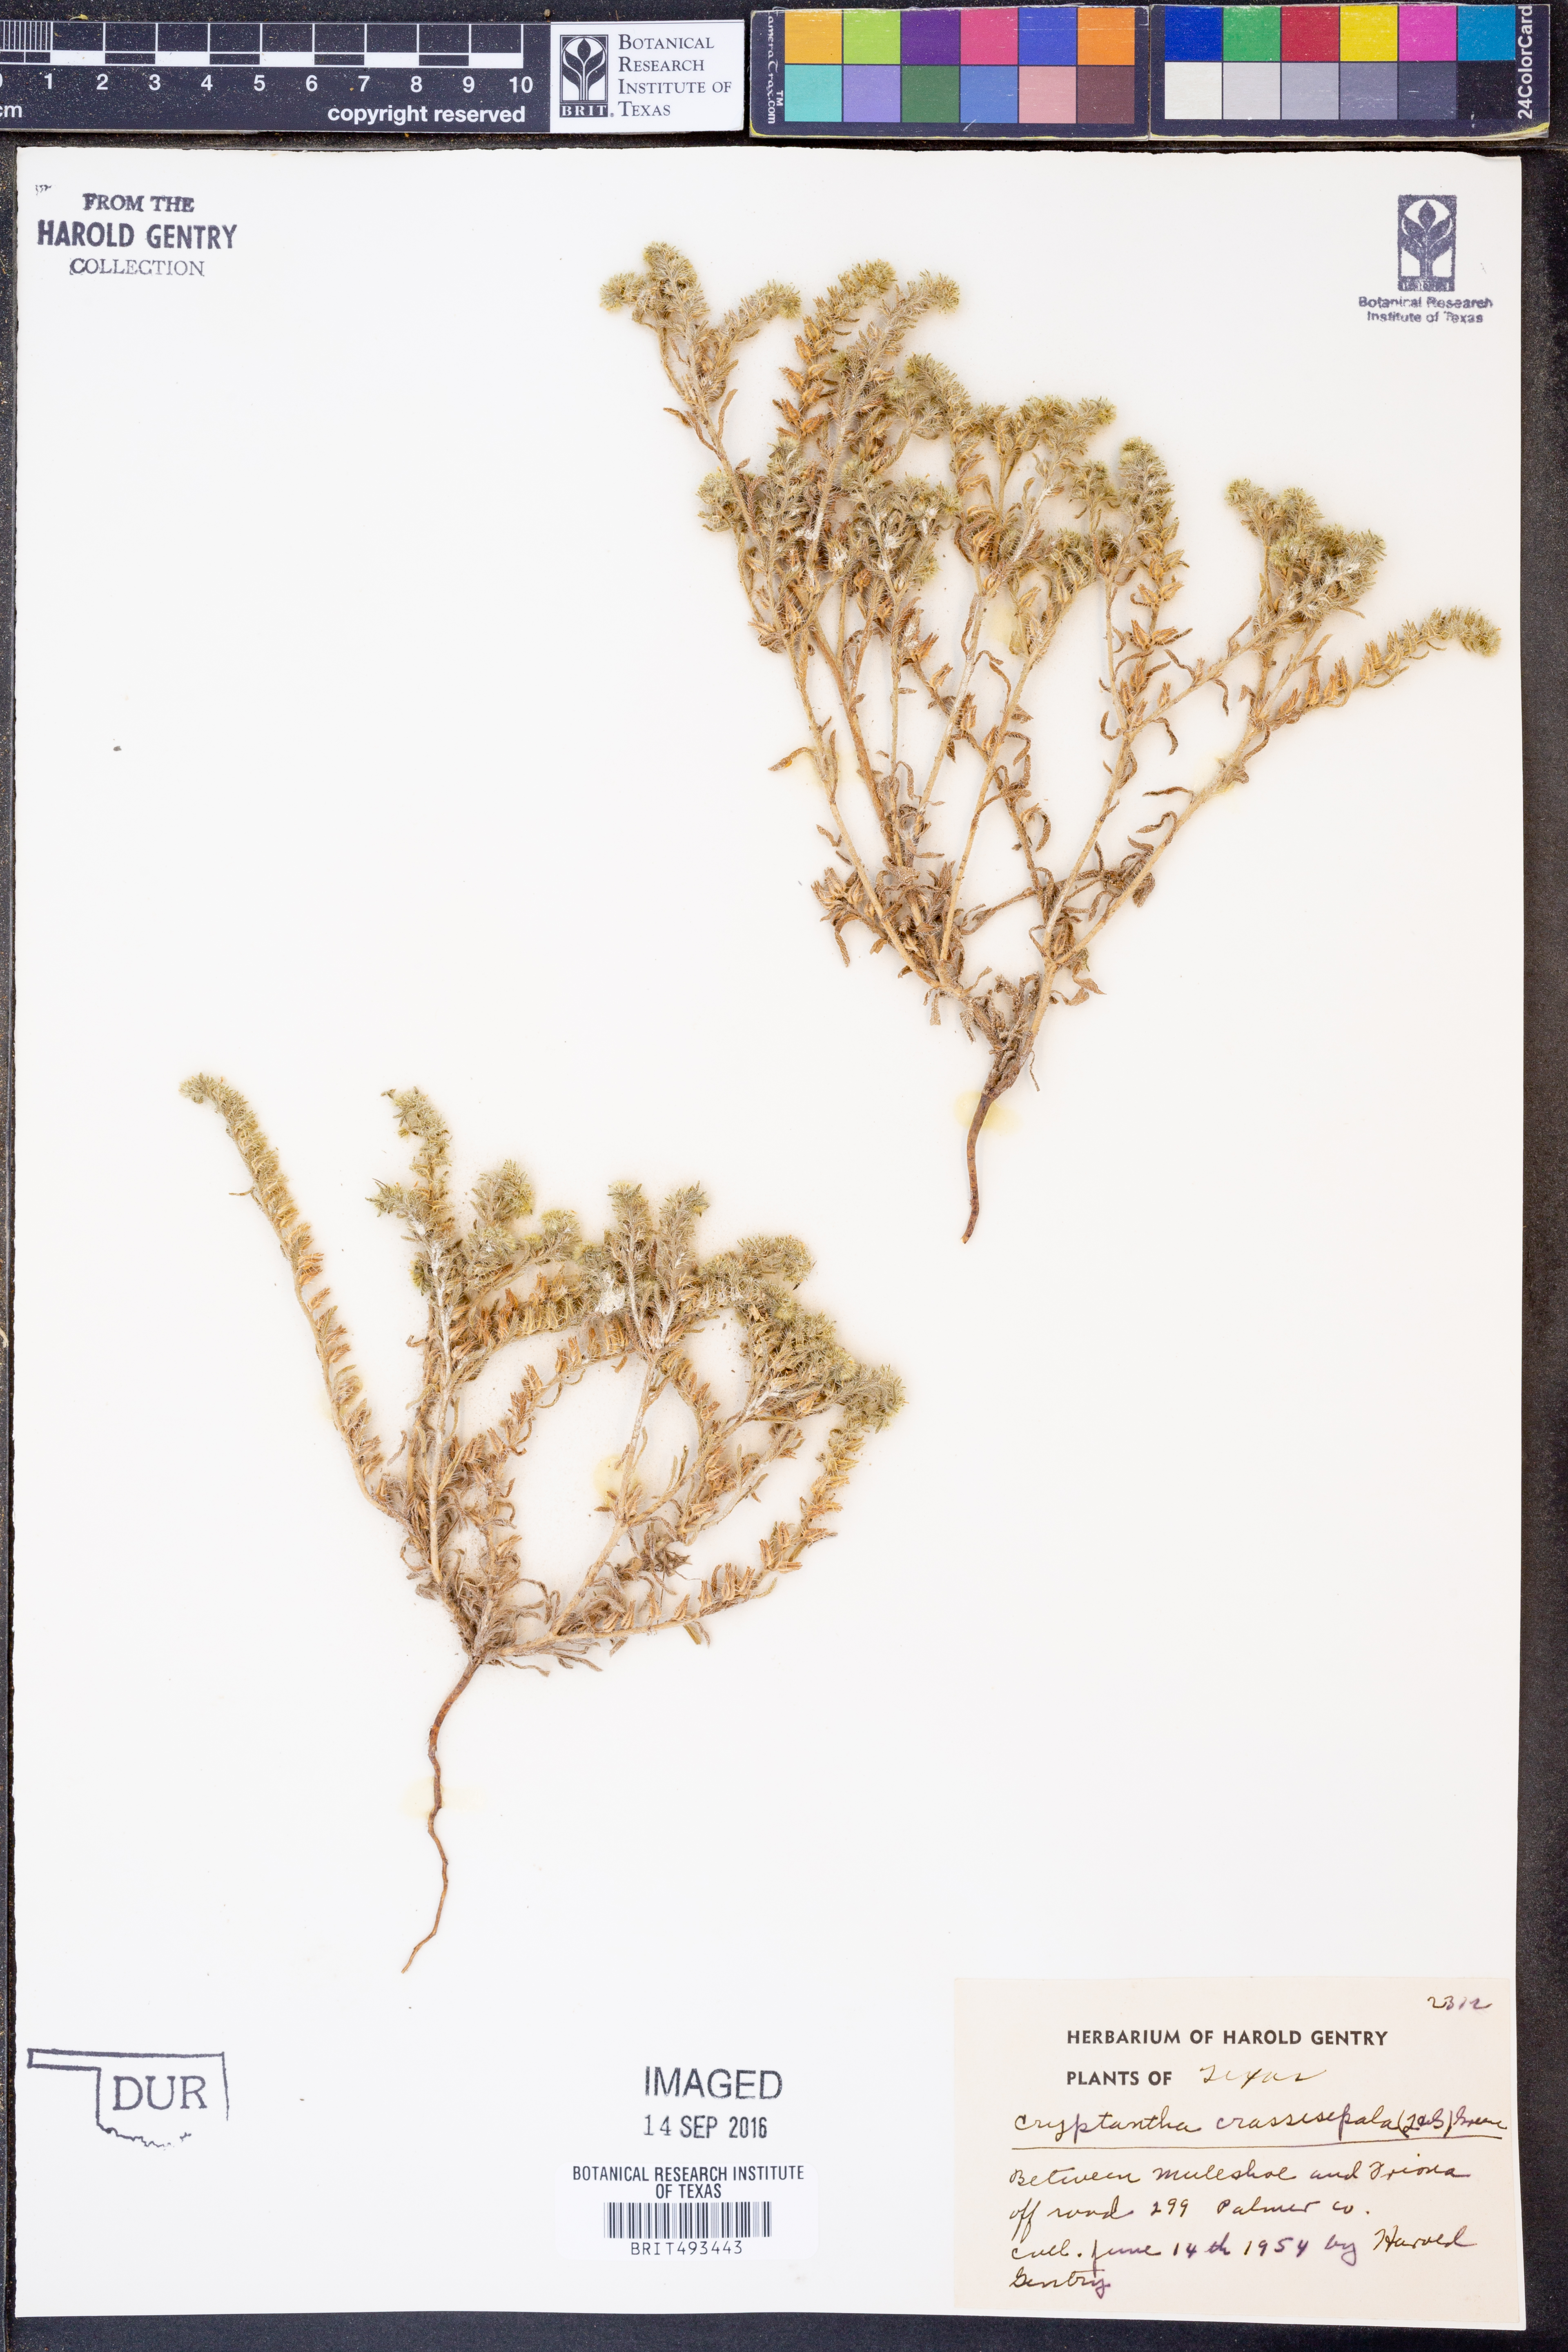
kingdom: Plantae
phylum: Tracheophyta
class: Magnoliopsida
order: Boraginales
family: Boraginaceae
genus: Cryptantha
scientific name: Cryptantha crassisepala
